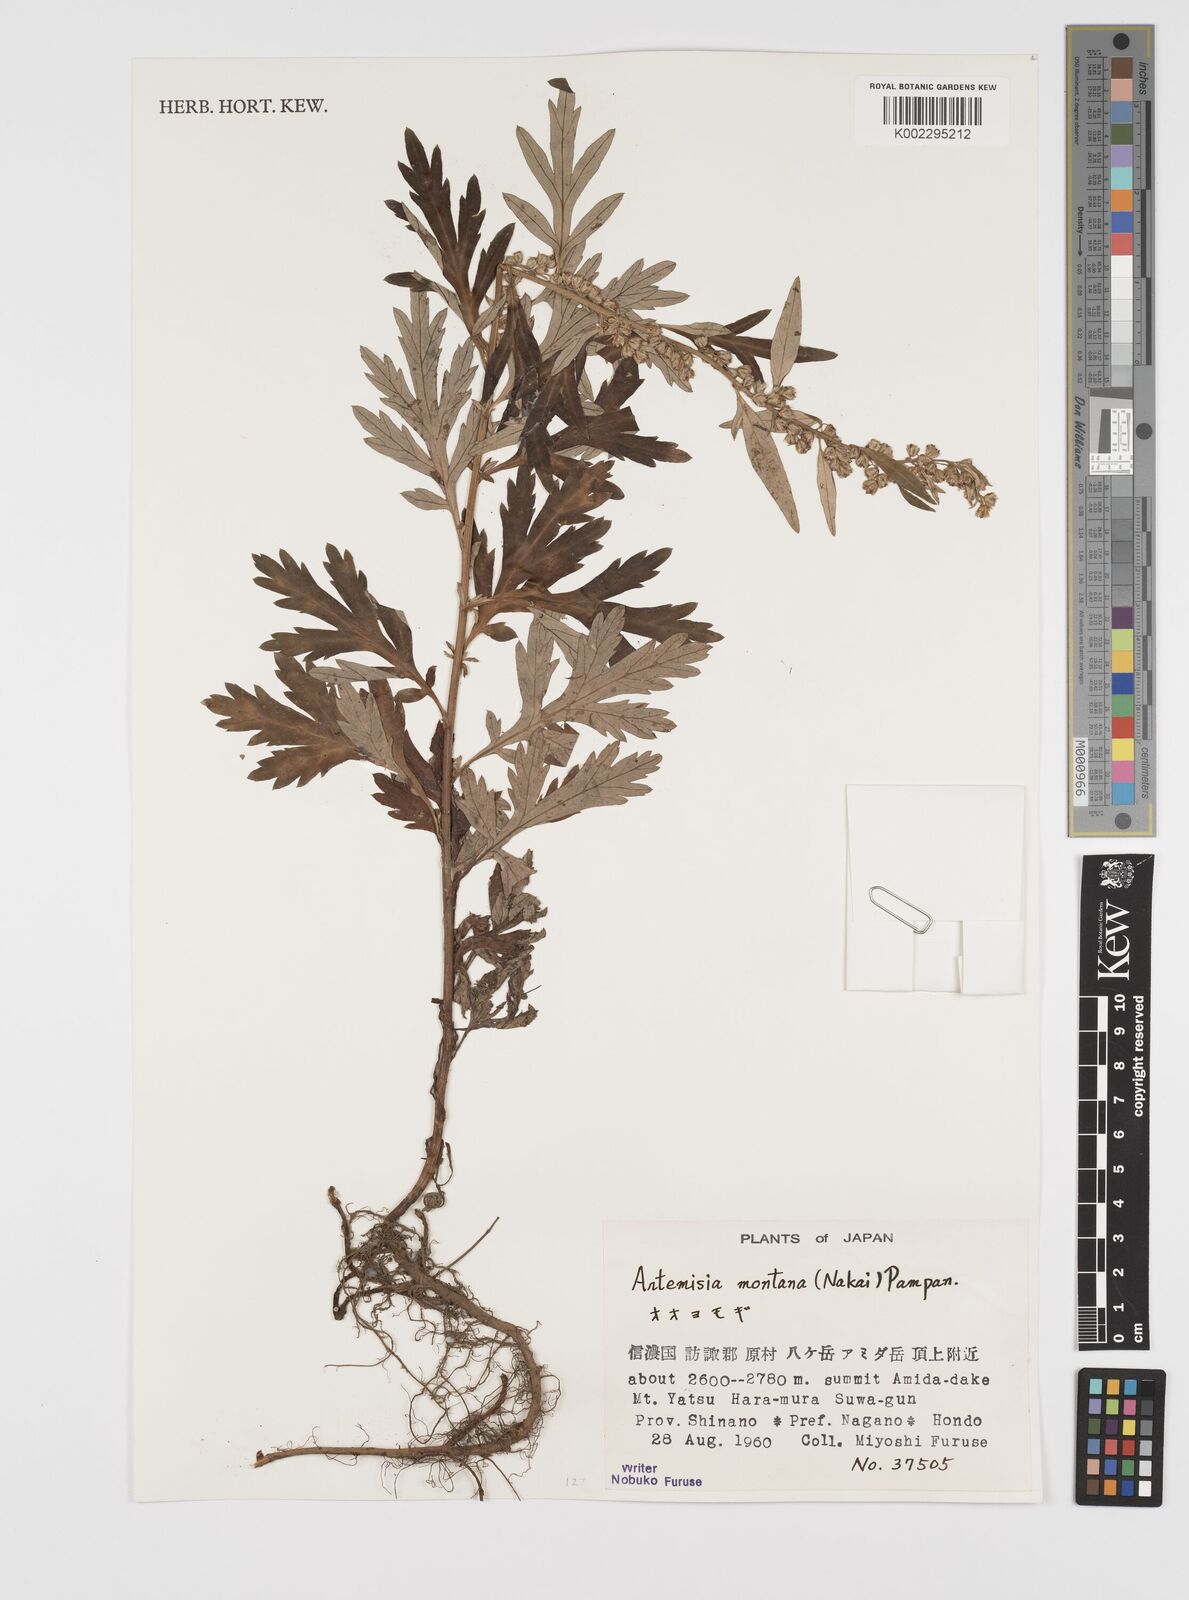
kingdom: Plantae
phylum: Tracheophyta
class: Magnoliopsida
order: Asterales
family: Asteraceae
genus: Artemisia
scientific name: Artemisia montana
